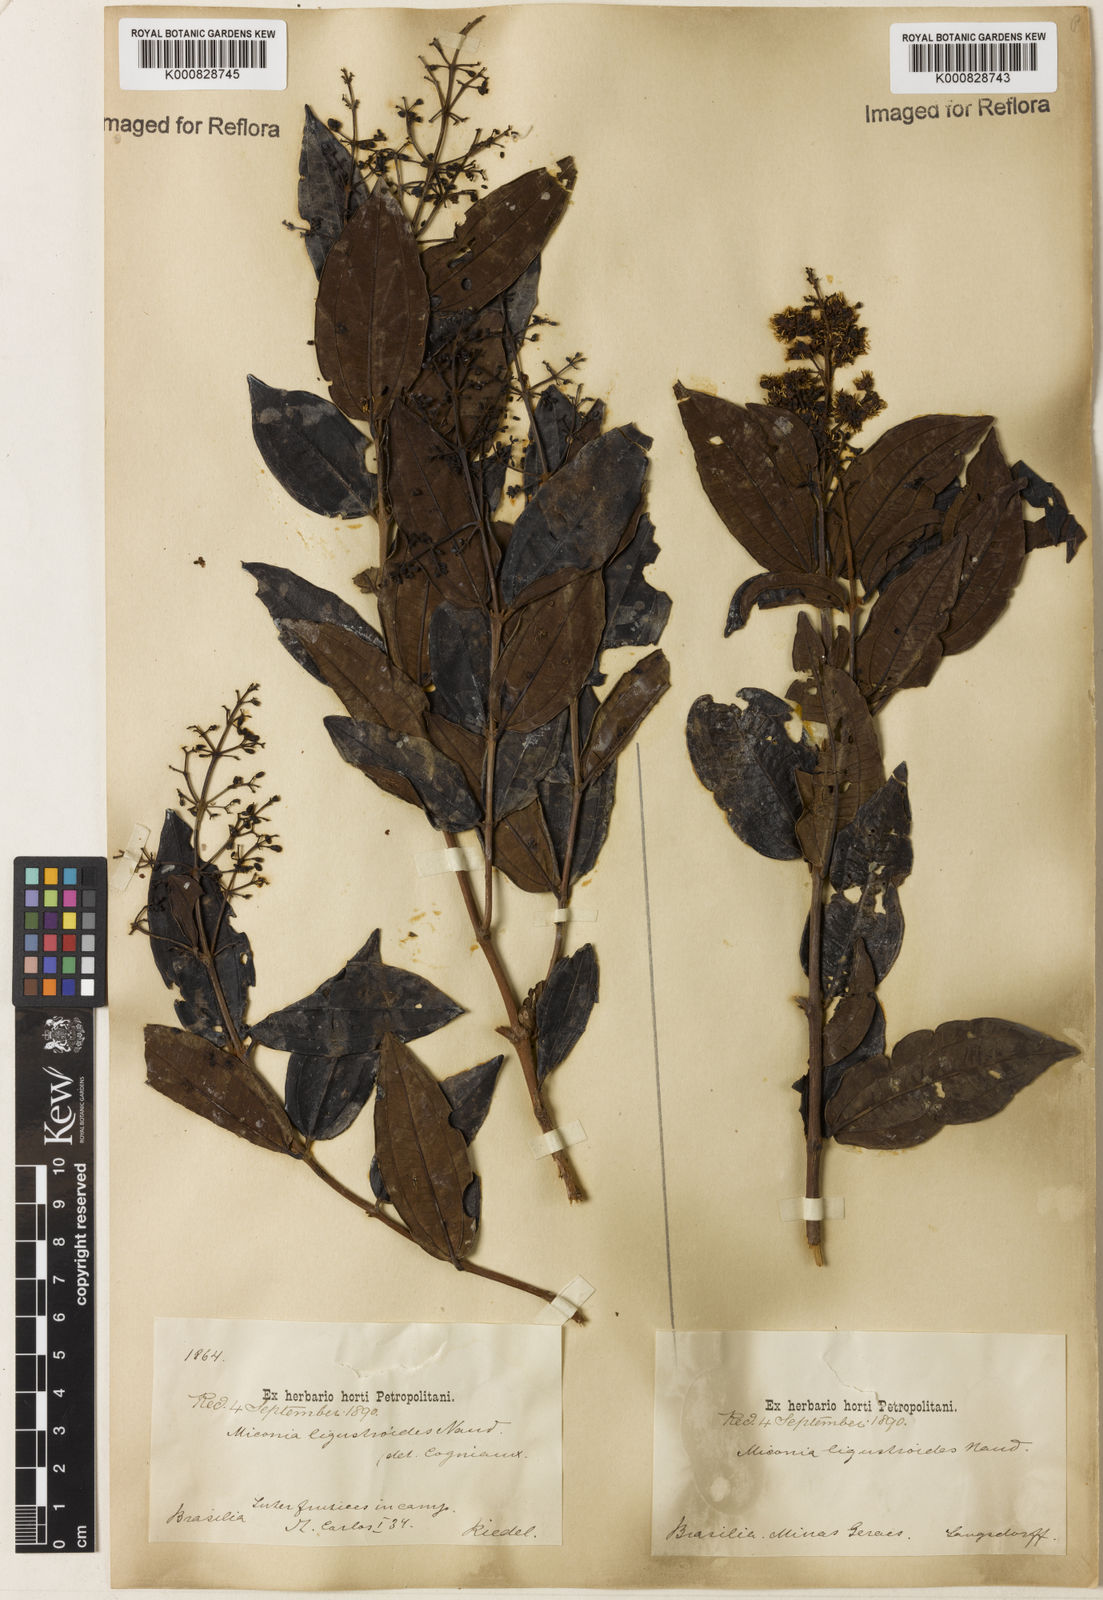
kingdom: Plantae
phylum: Tracheophyta
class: Magnoliopsida
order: Myrtales
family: Melastomataceae
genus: Miconia
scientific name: Miconia ligustroides
